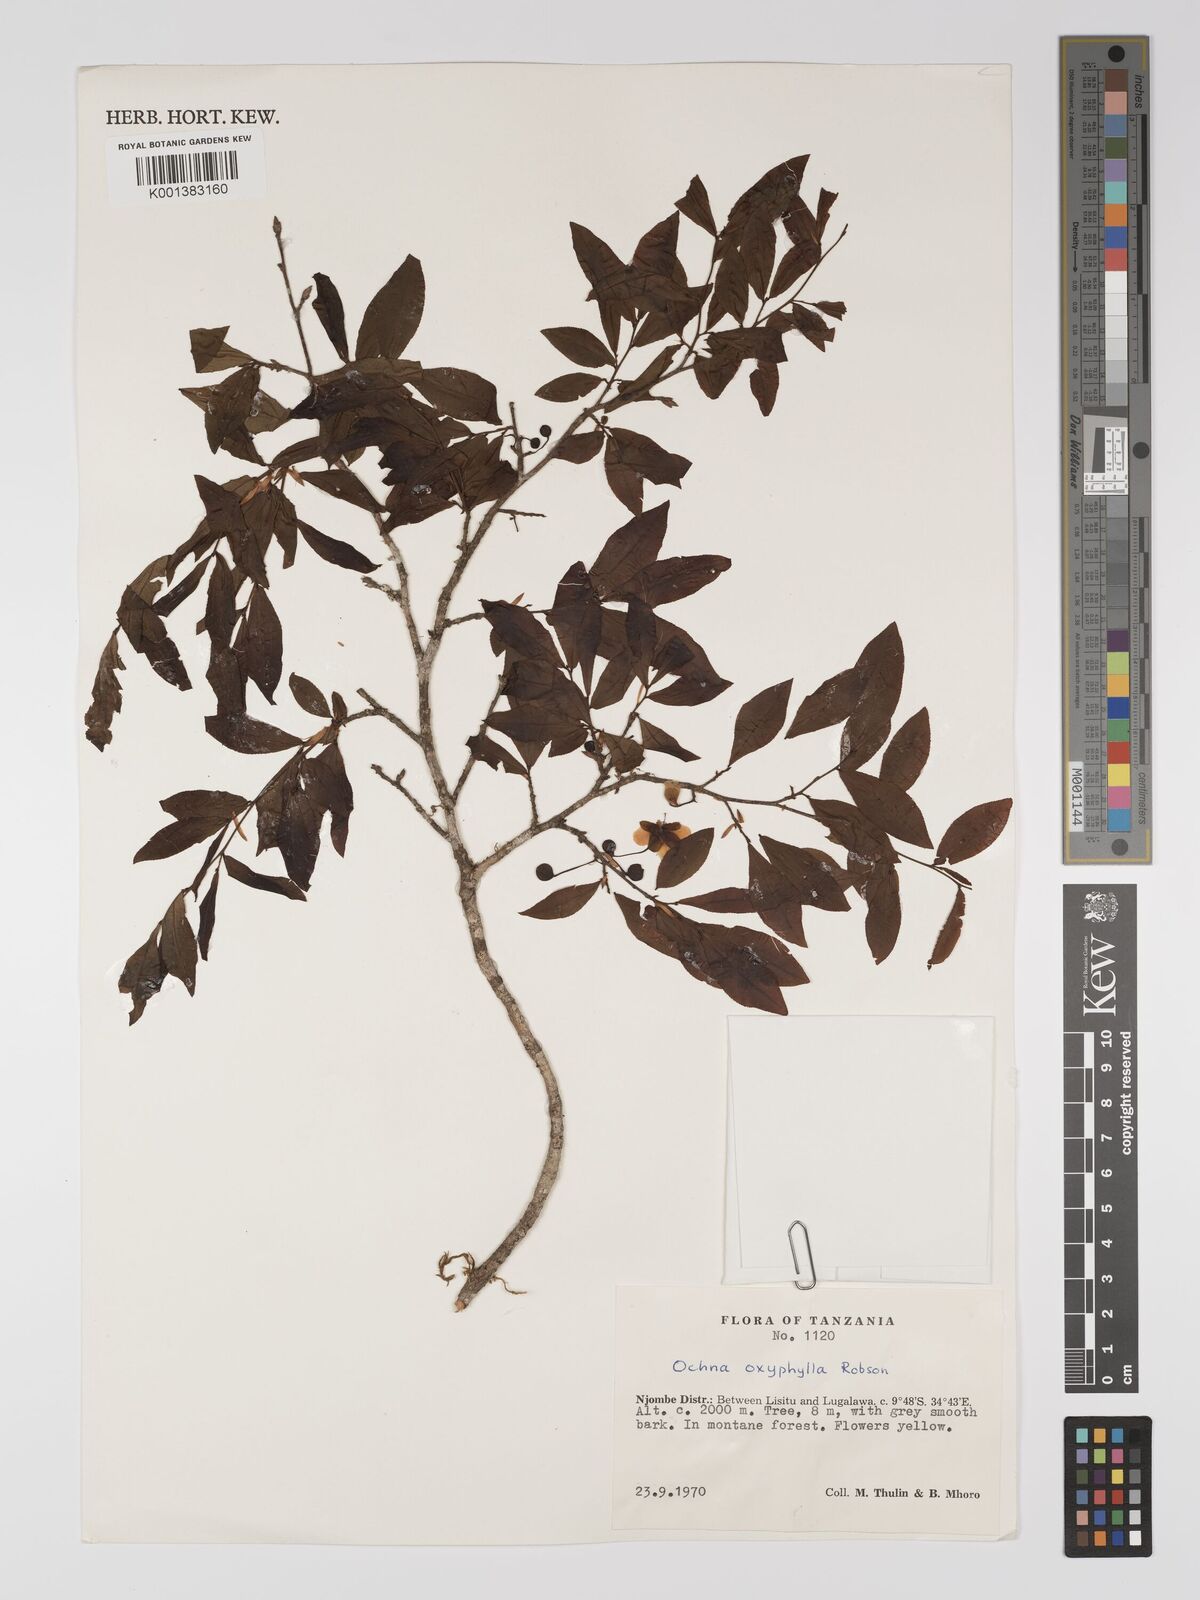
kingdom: Plantae
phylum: Tracheophyta
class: Magnoliopsida
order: Malpighiales
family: Ochnaceae
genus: Ochna
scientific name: Ochna oxyphylla
